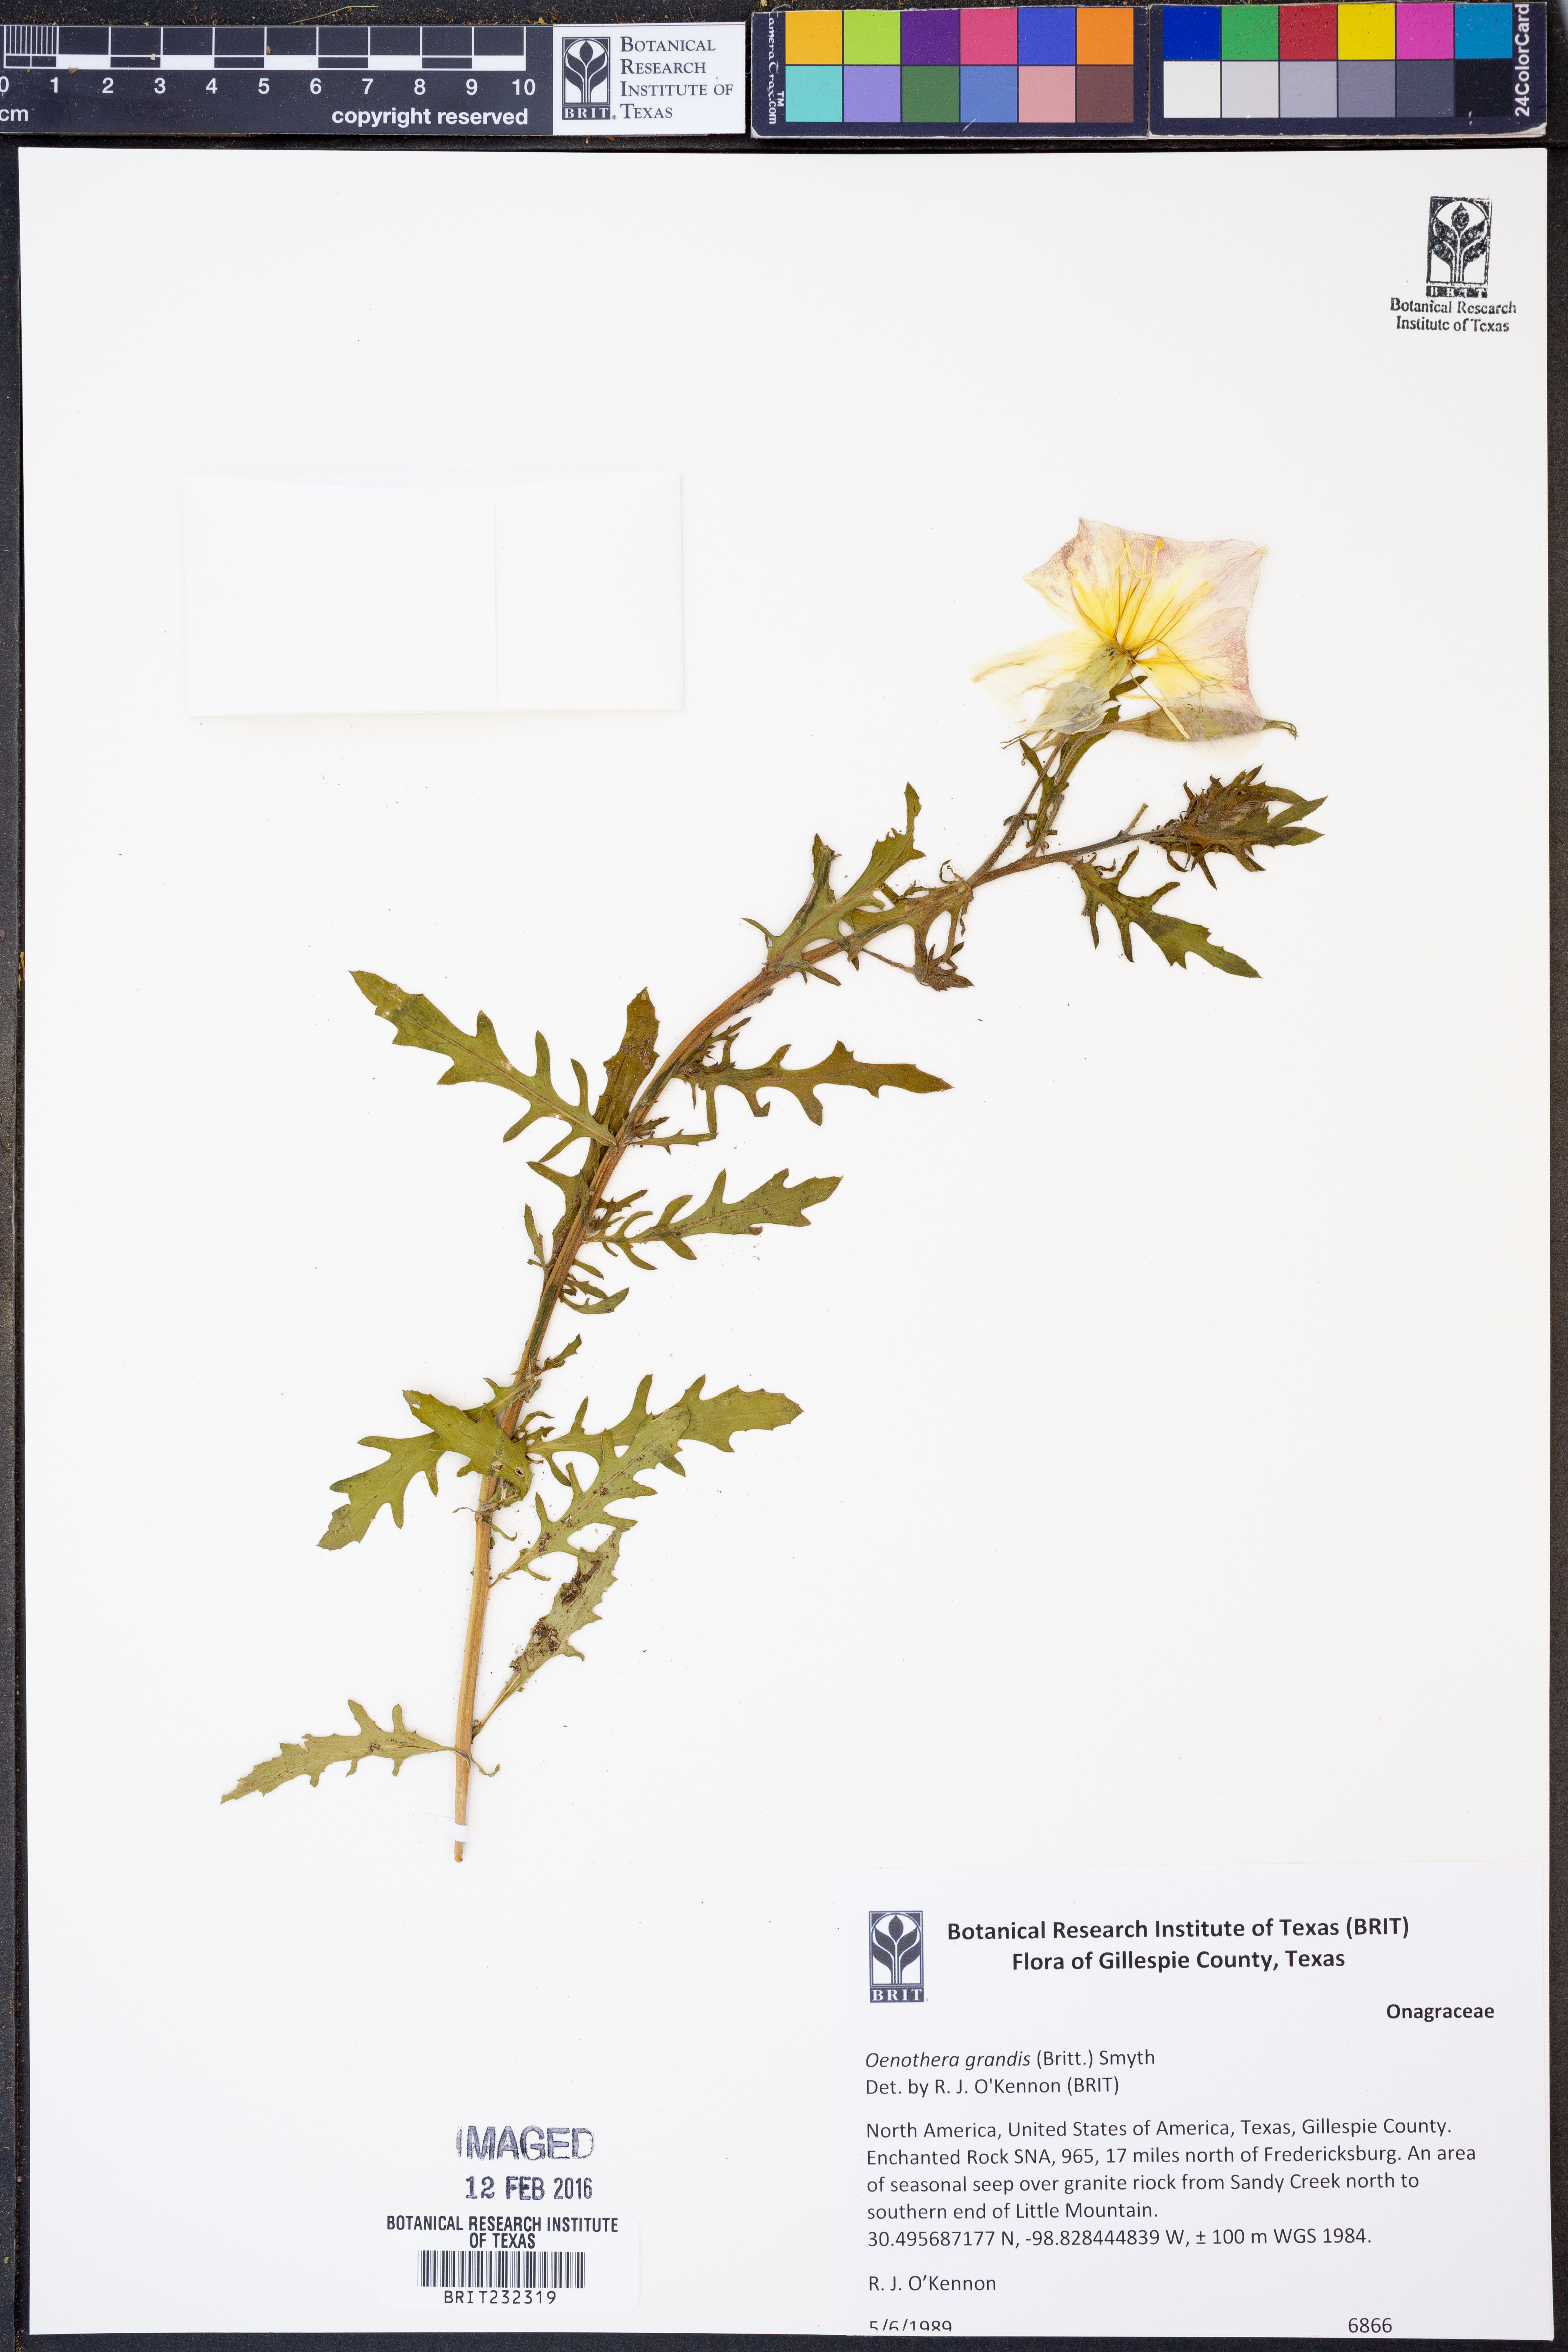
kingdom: Plantae
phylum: Tracheophyta
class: Magnoliopsida
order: Myrtales
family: Onagraceae
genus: Oenothera
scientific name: Oenothera grandis
